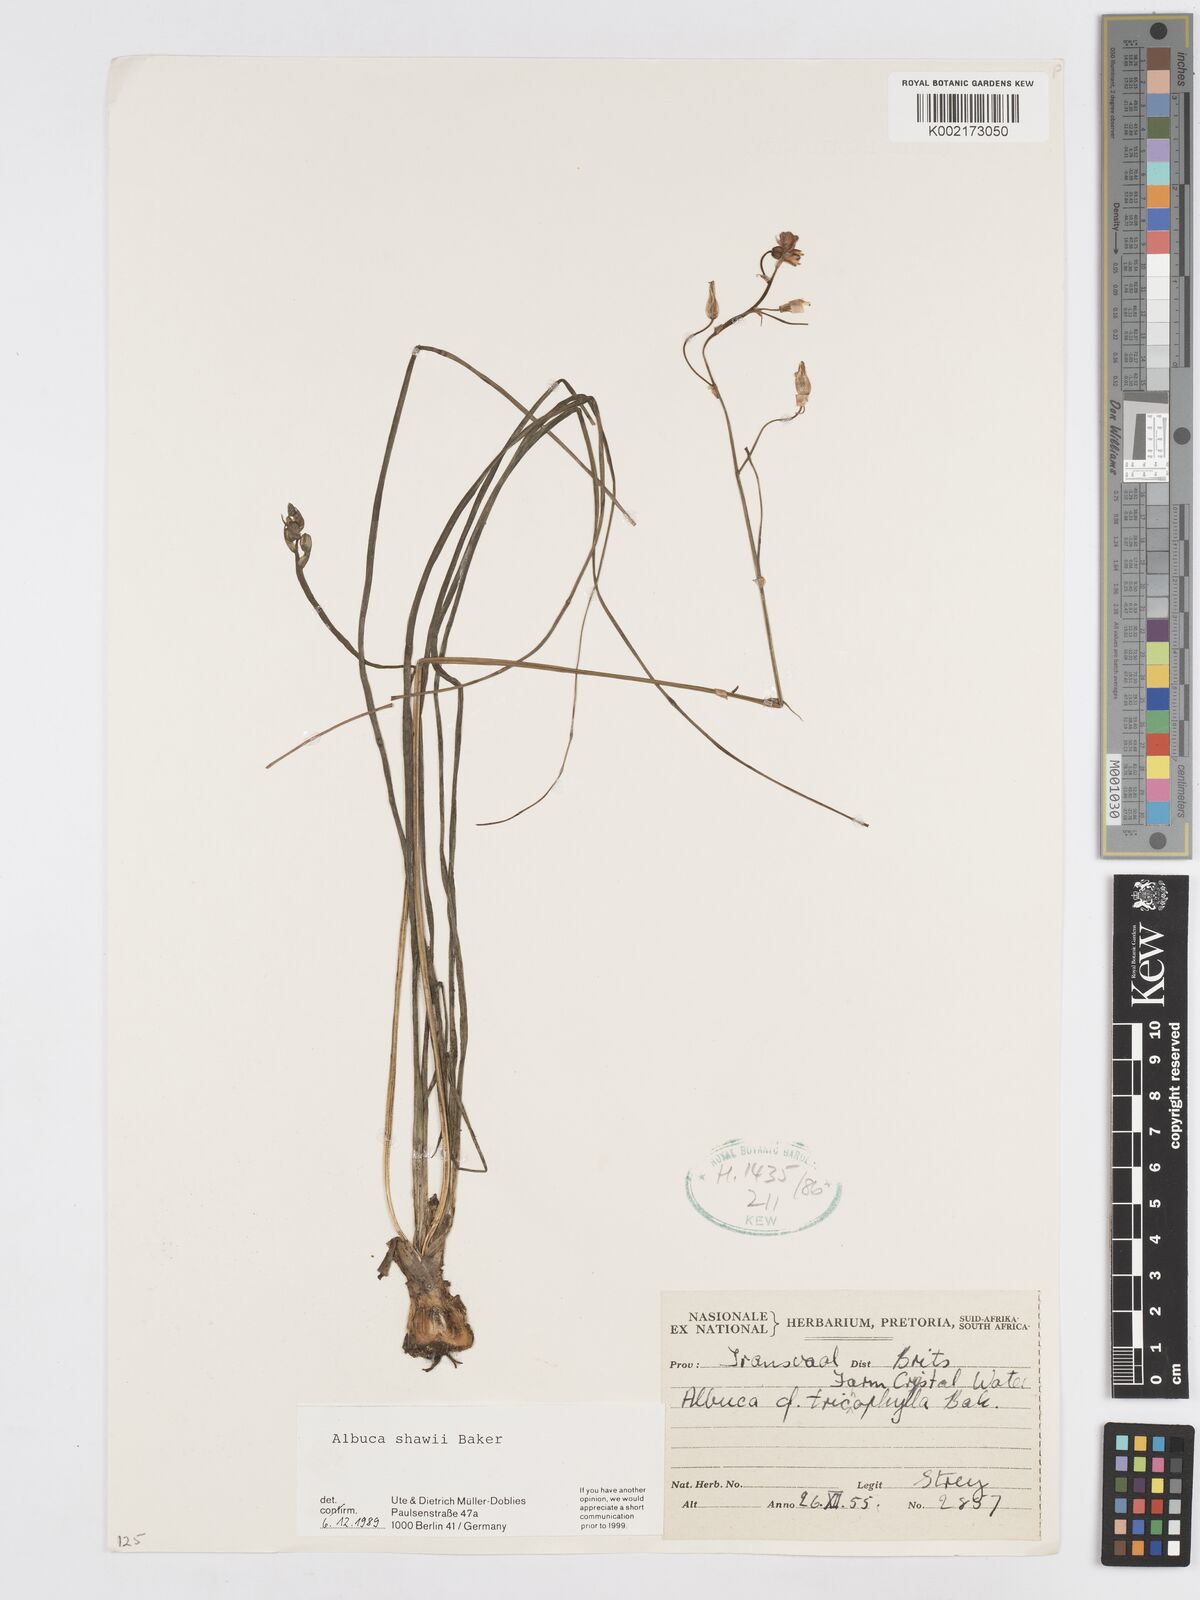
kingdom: Plantae
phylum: Tracheophyta
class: Liliopsida
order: Asparagales
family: Asparagaceae
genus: Albuca
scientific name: Albuca shawii
